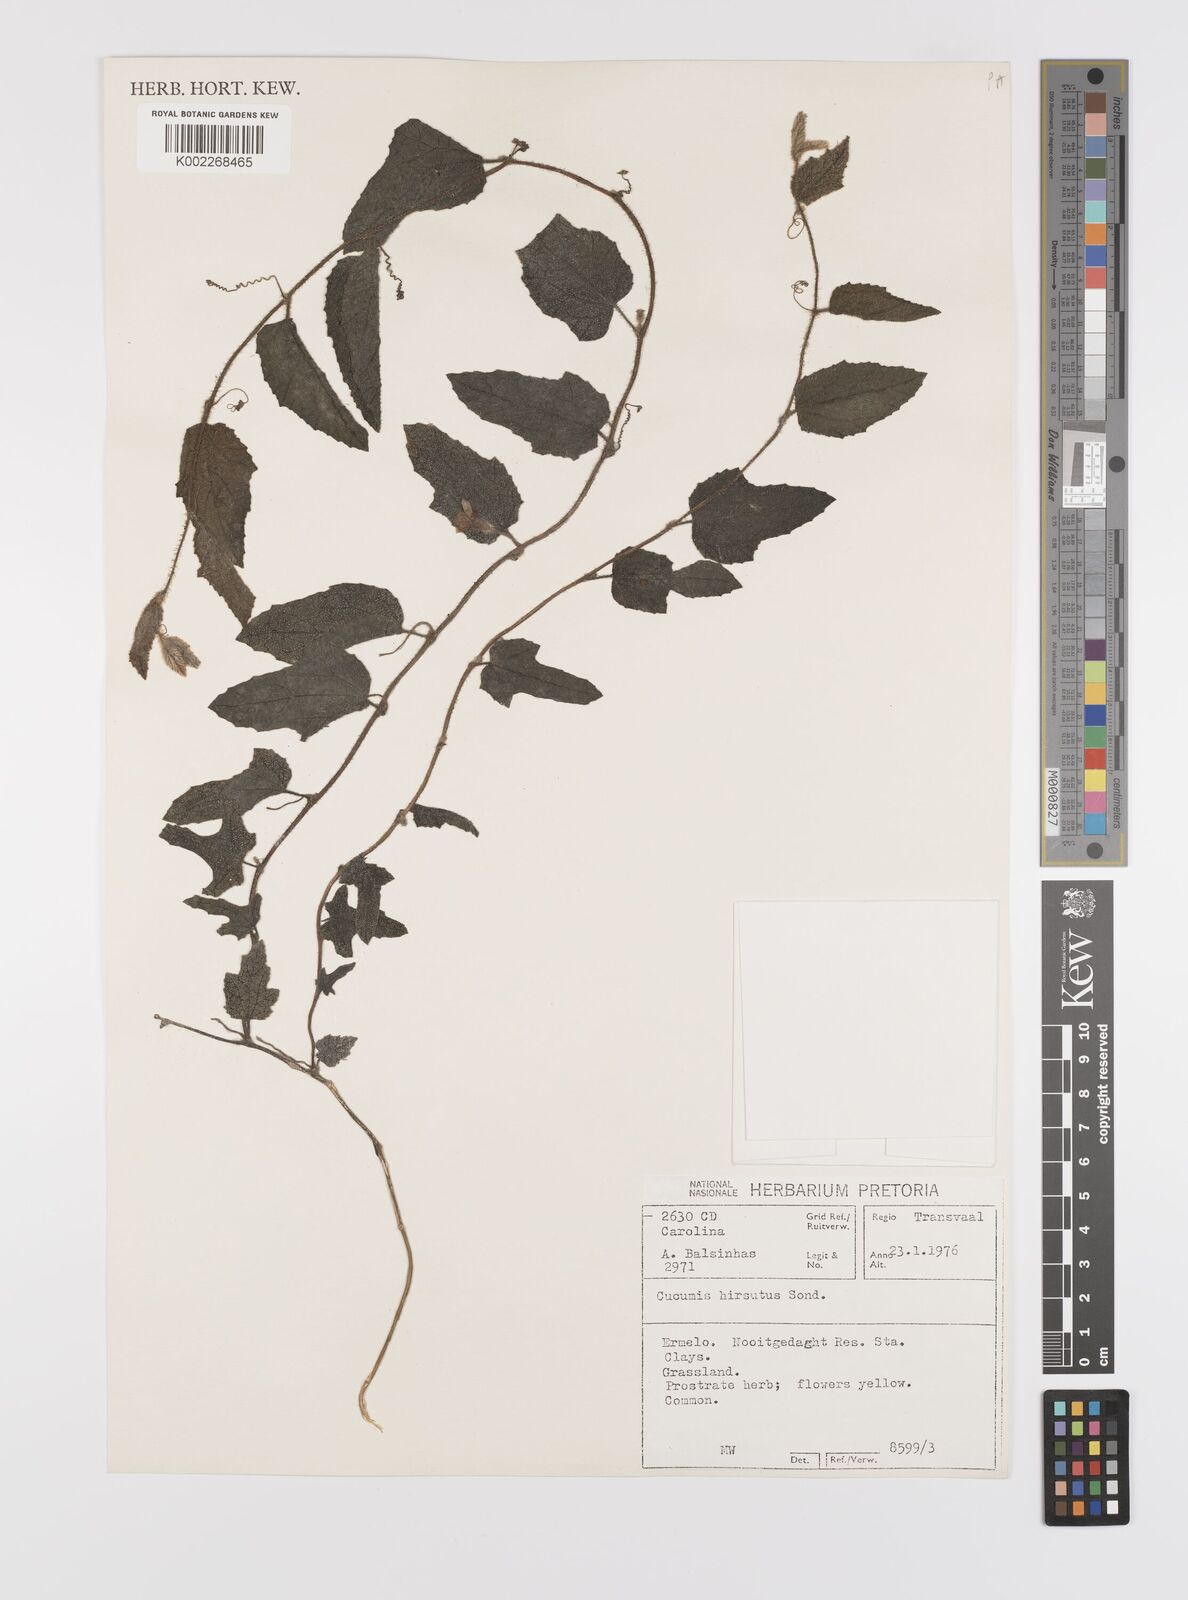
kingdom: Plantae
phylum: Tracheophyta
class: Magnoliopsida
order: Cucurbitales
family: Cucurbitaceae
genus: Cucumis
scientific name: Cucumis hirsutus
